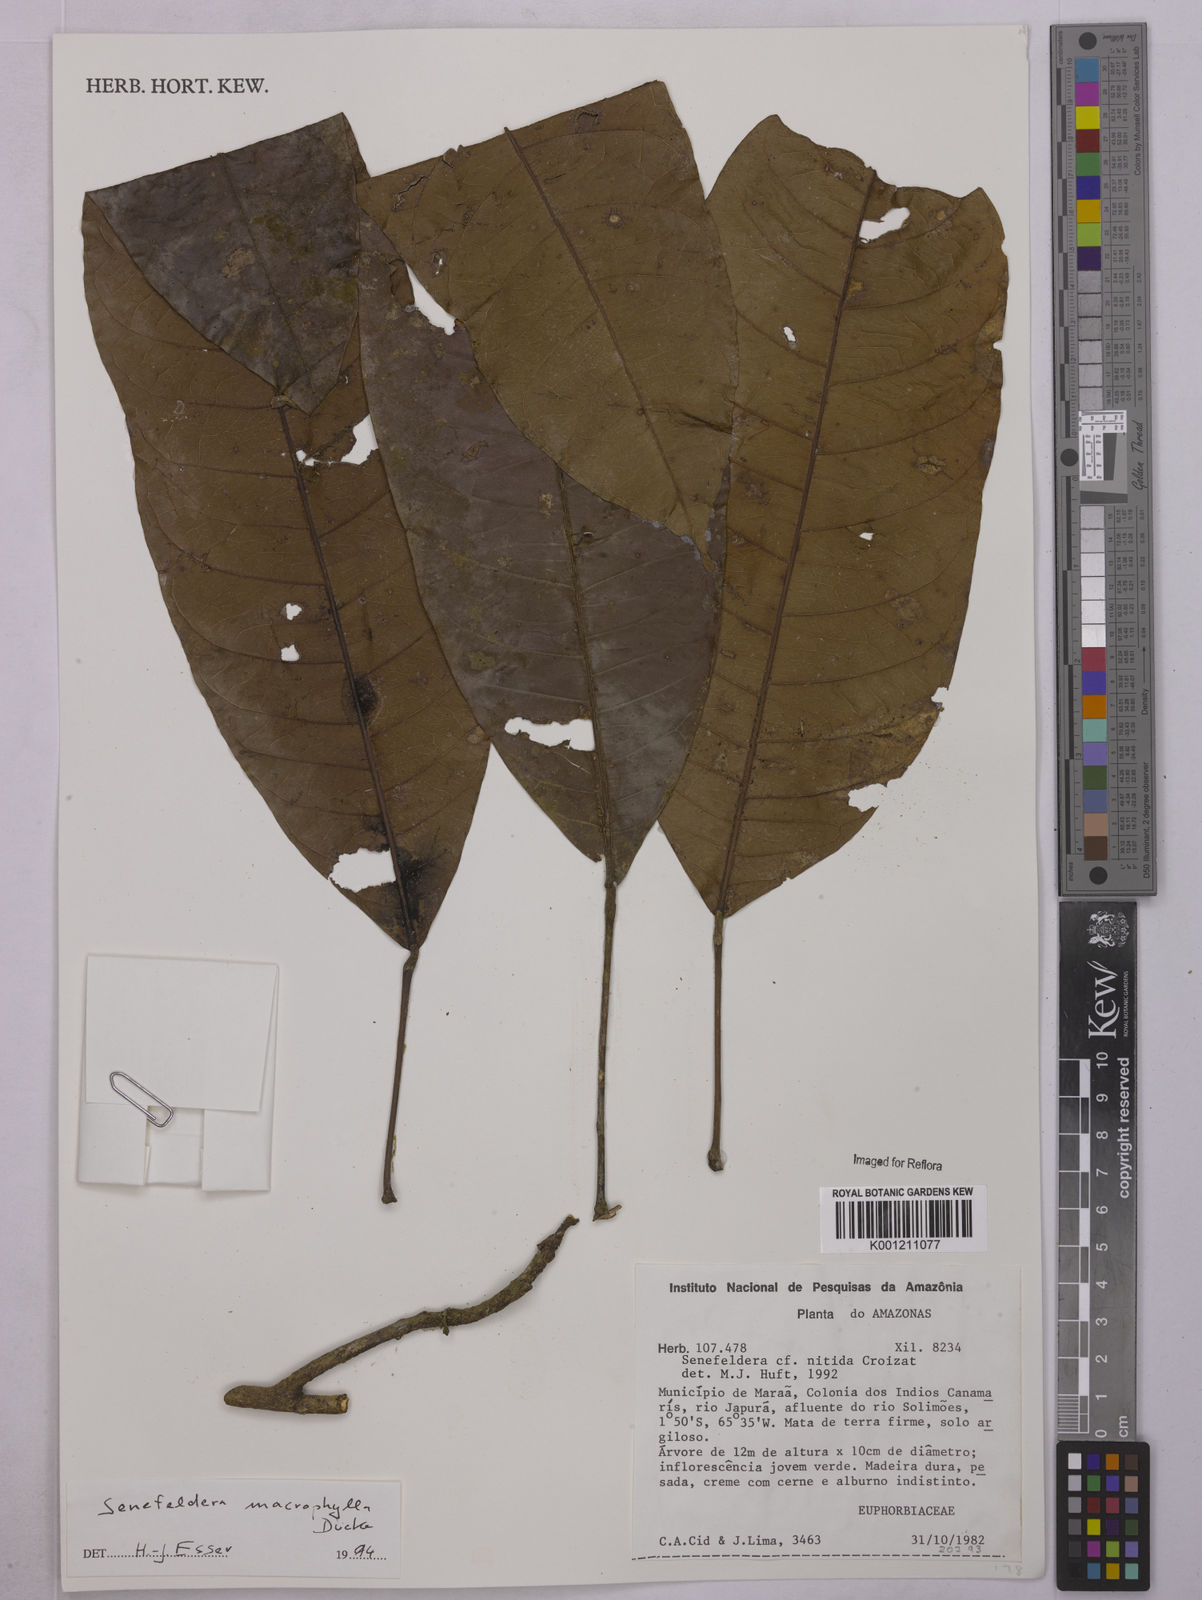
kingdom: Plantae
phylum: Tracheophyta
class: Magnoliopsida
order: Malpighiales
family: Euphorbiaceae
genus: Rhodothyrsus
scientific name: Rhodothyrsus macrophyllus
